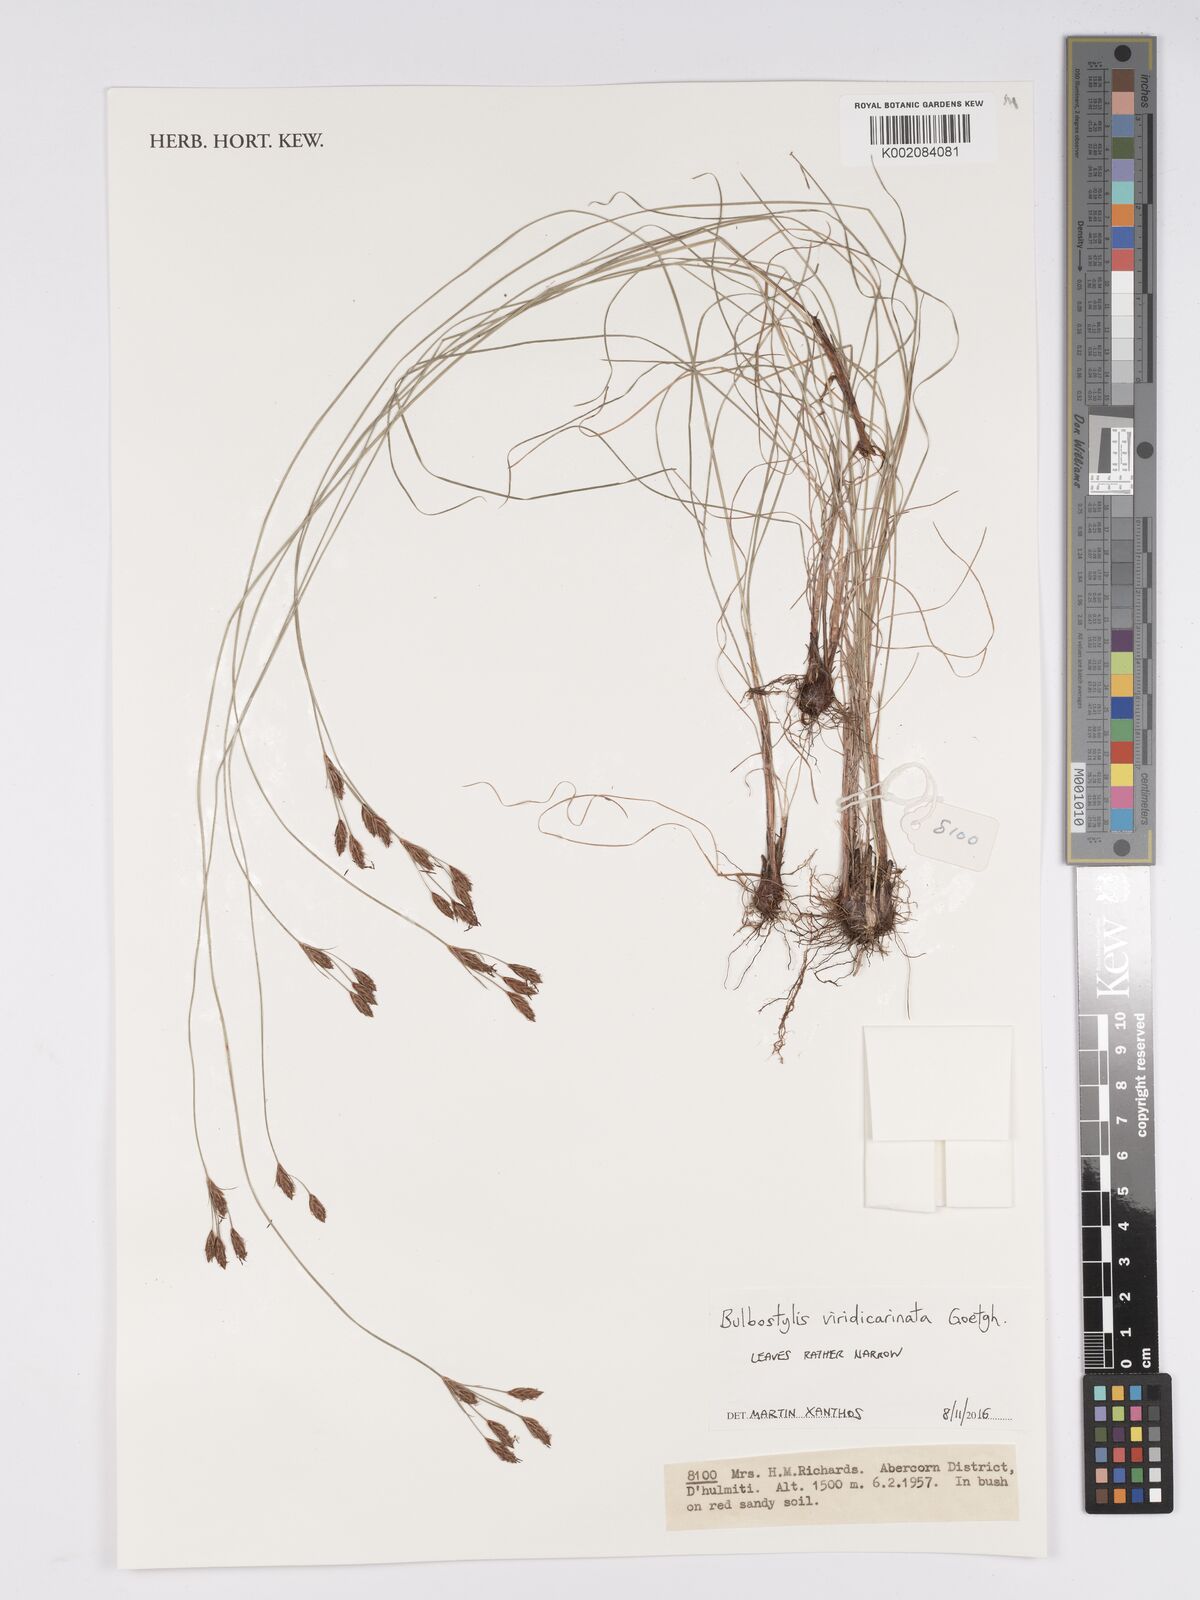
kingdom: Plantae
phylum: Tracheophyta
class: Liliopsida
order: Poales
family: Cyperaceae
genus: Bulbostylis
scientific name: Bulbostylis viridecarinata
